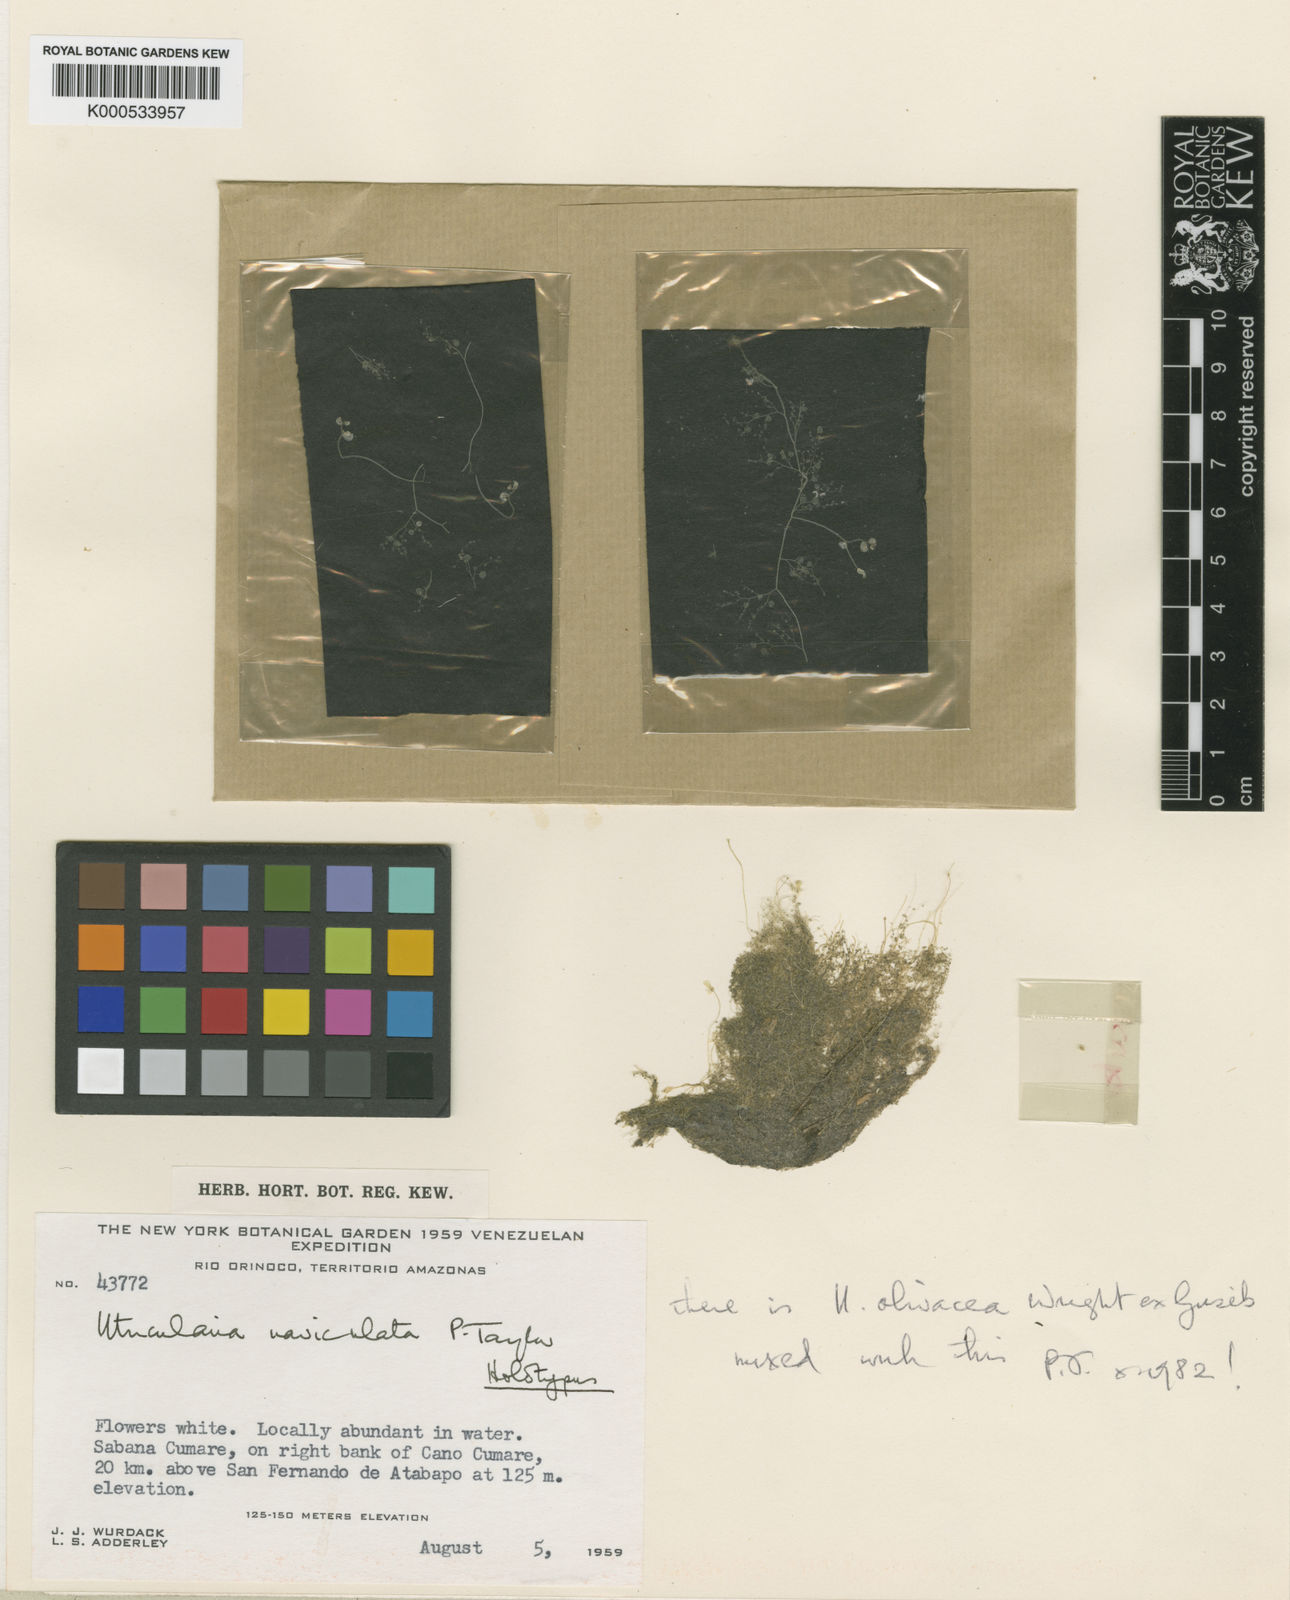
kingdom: Plantae
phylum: Tracheophyta
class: Magnoliopsida
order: Lamiales
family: Lentibulariaceae
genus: Utricularia
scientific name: Utricularia naviculata
